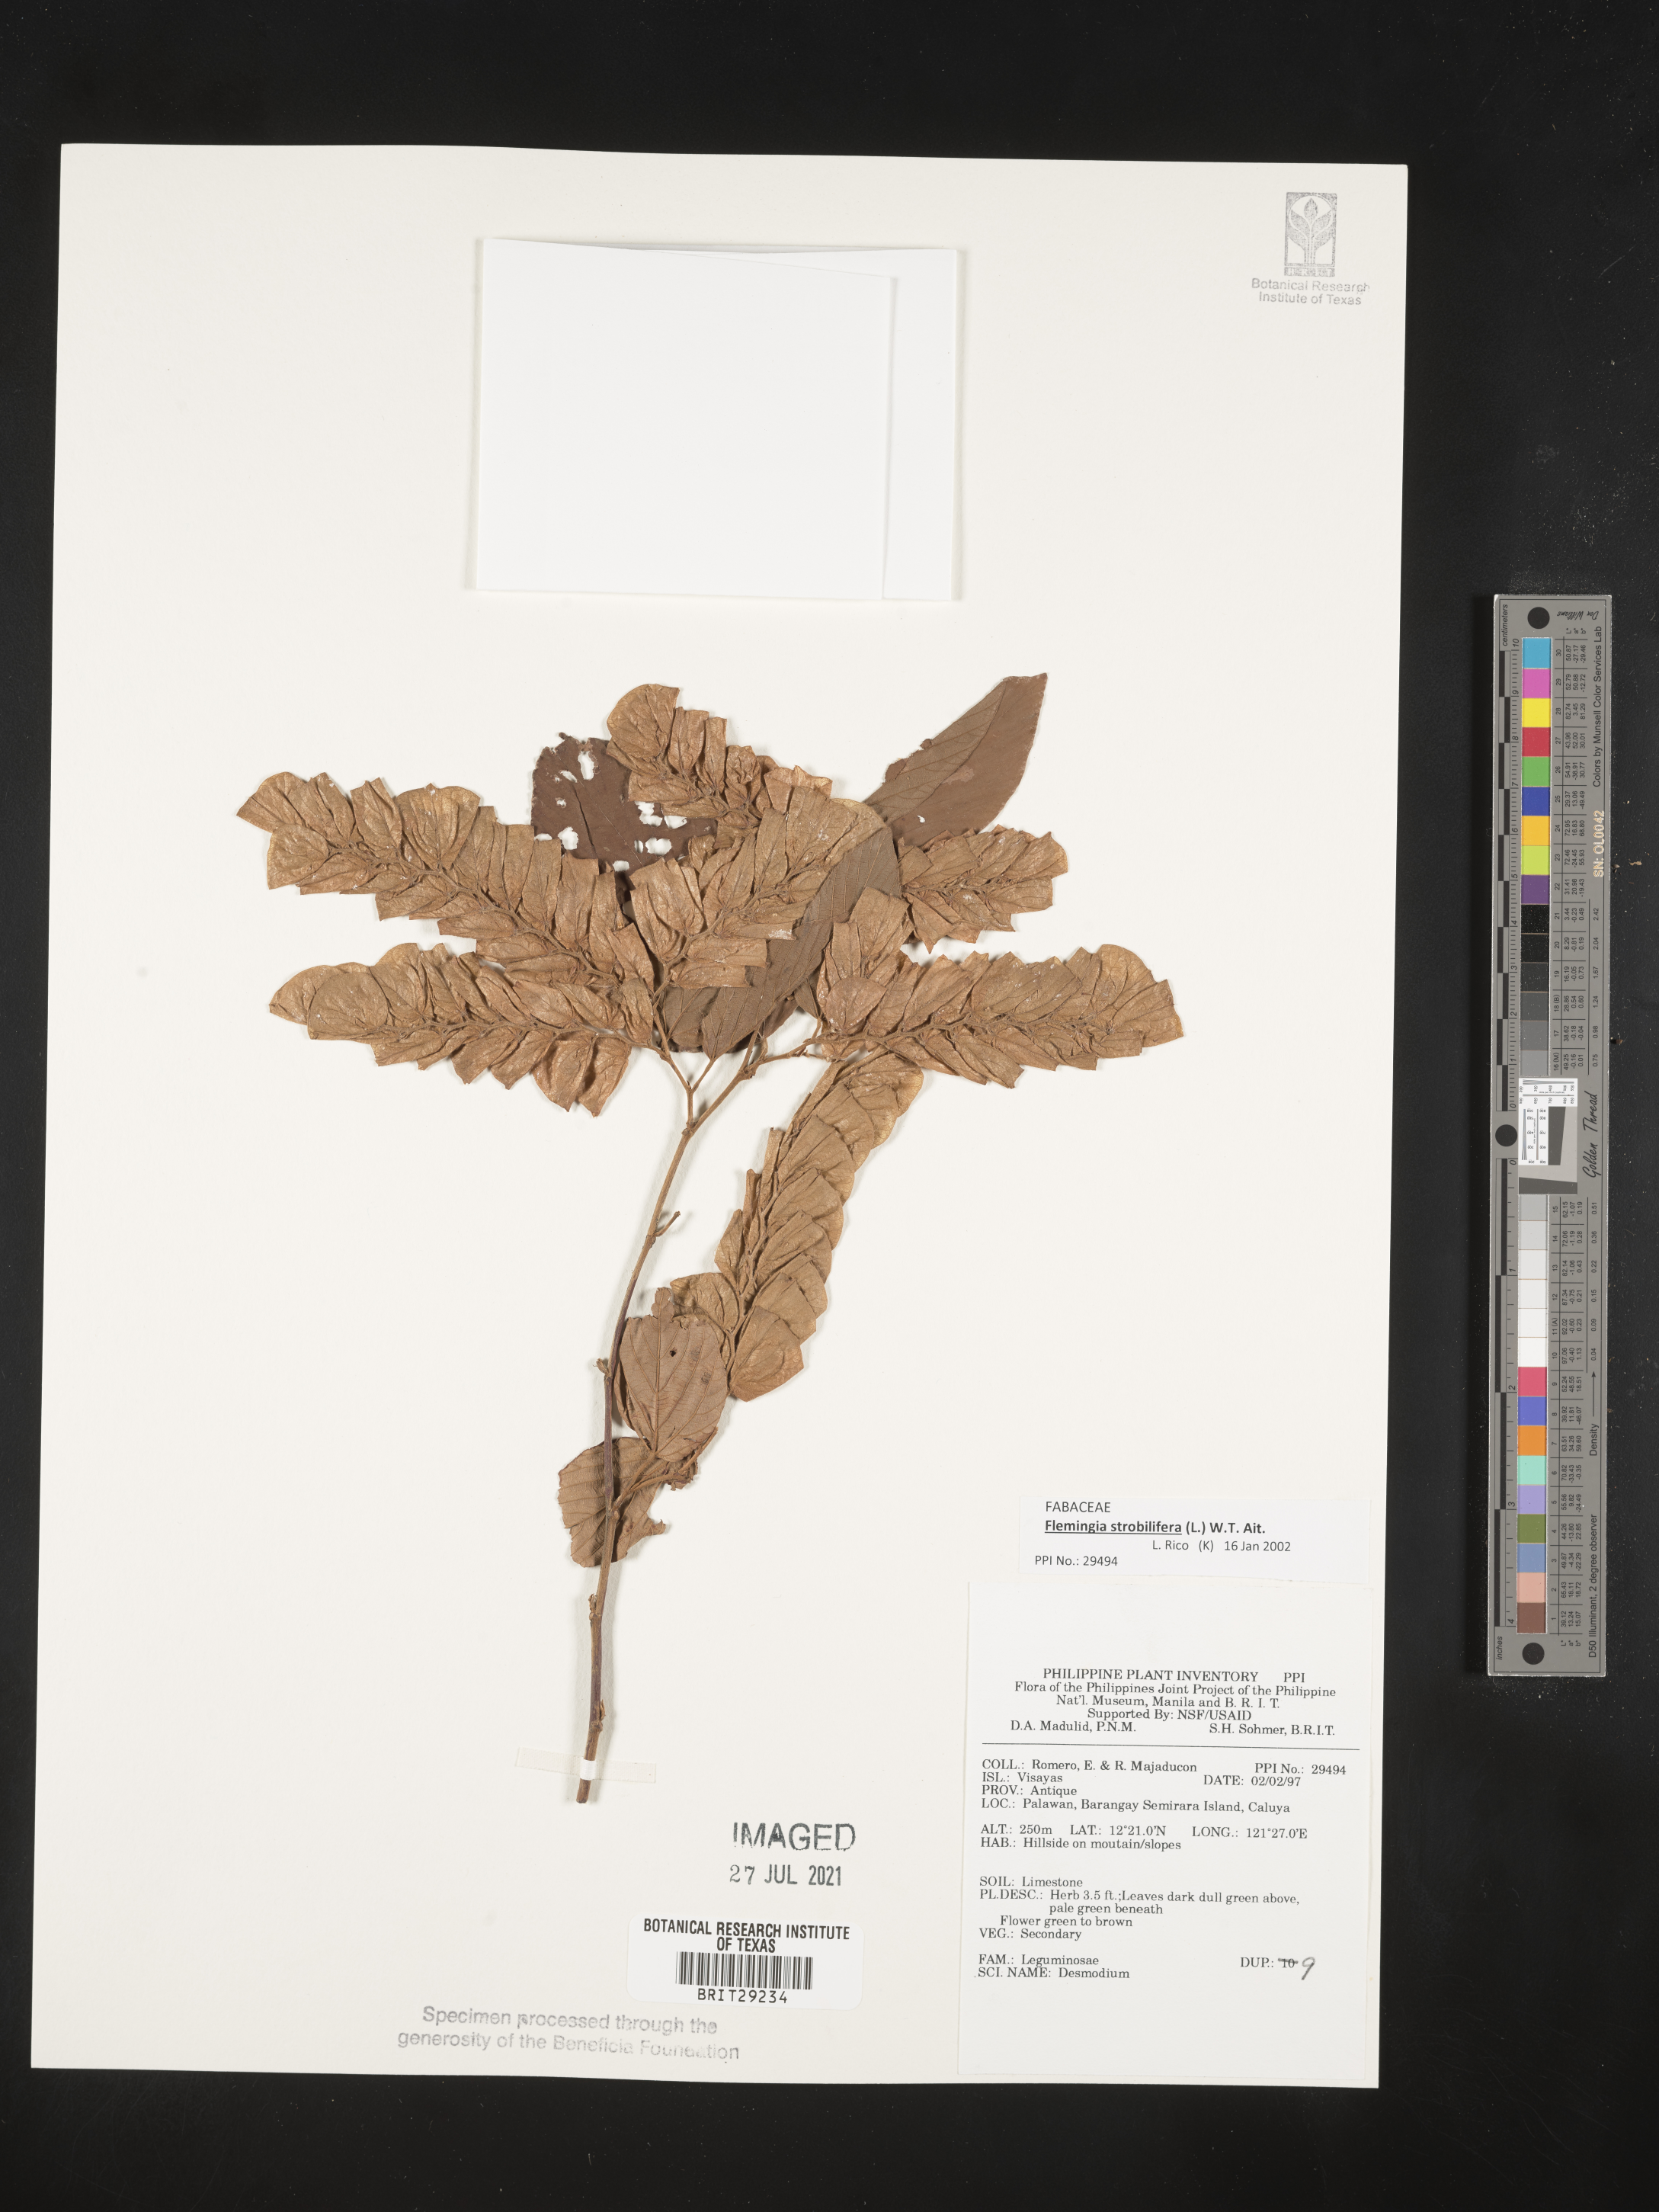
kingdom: Plantae
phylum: Tracheophyta
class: Magnoliopsida
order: Fabales
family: Fabaceae
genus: Flemingia
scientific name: Flemingia strobilifera
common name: Wild hops
